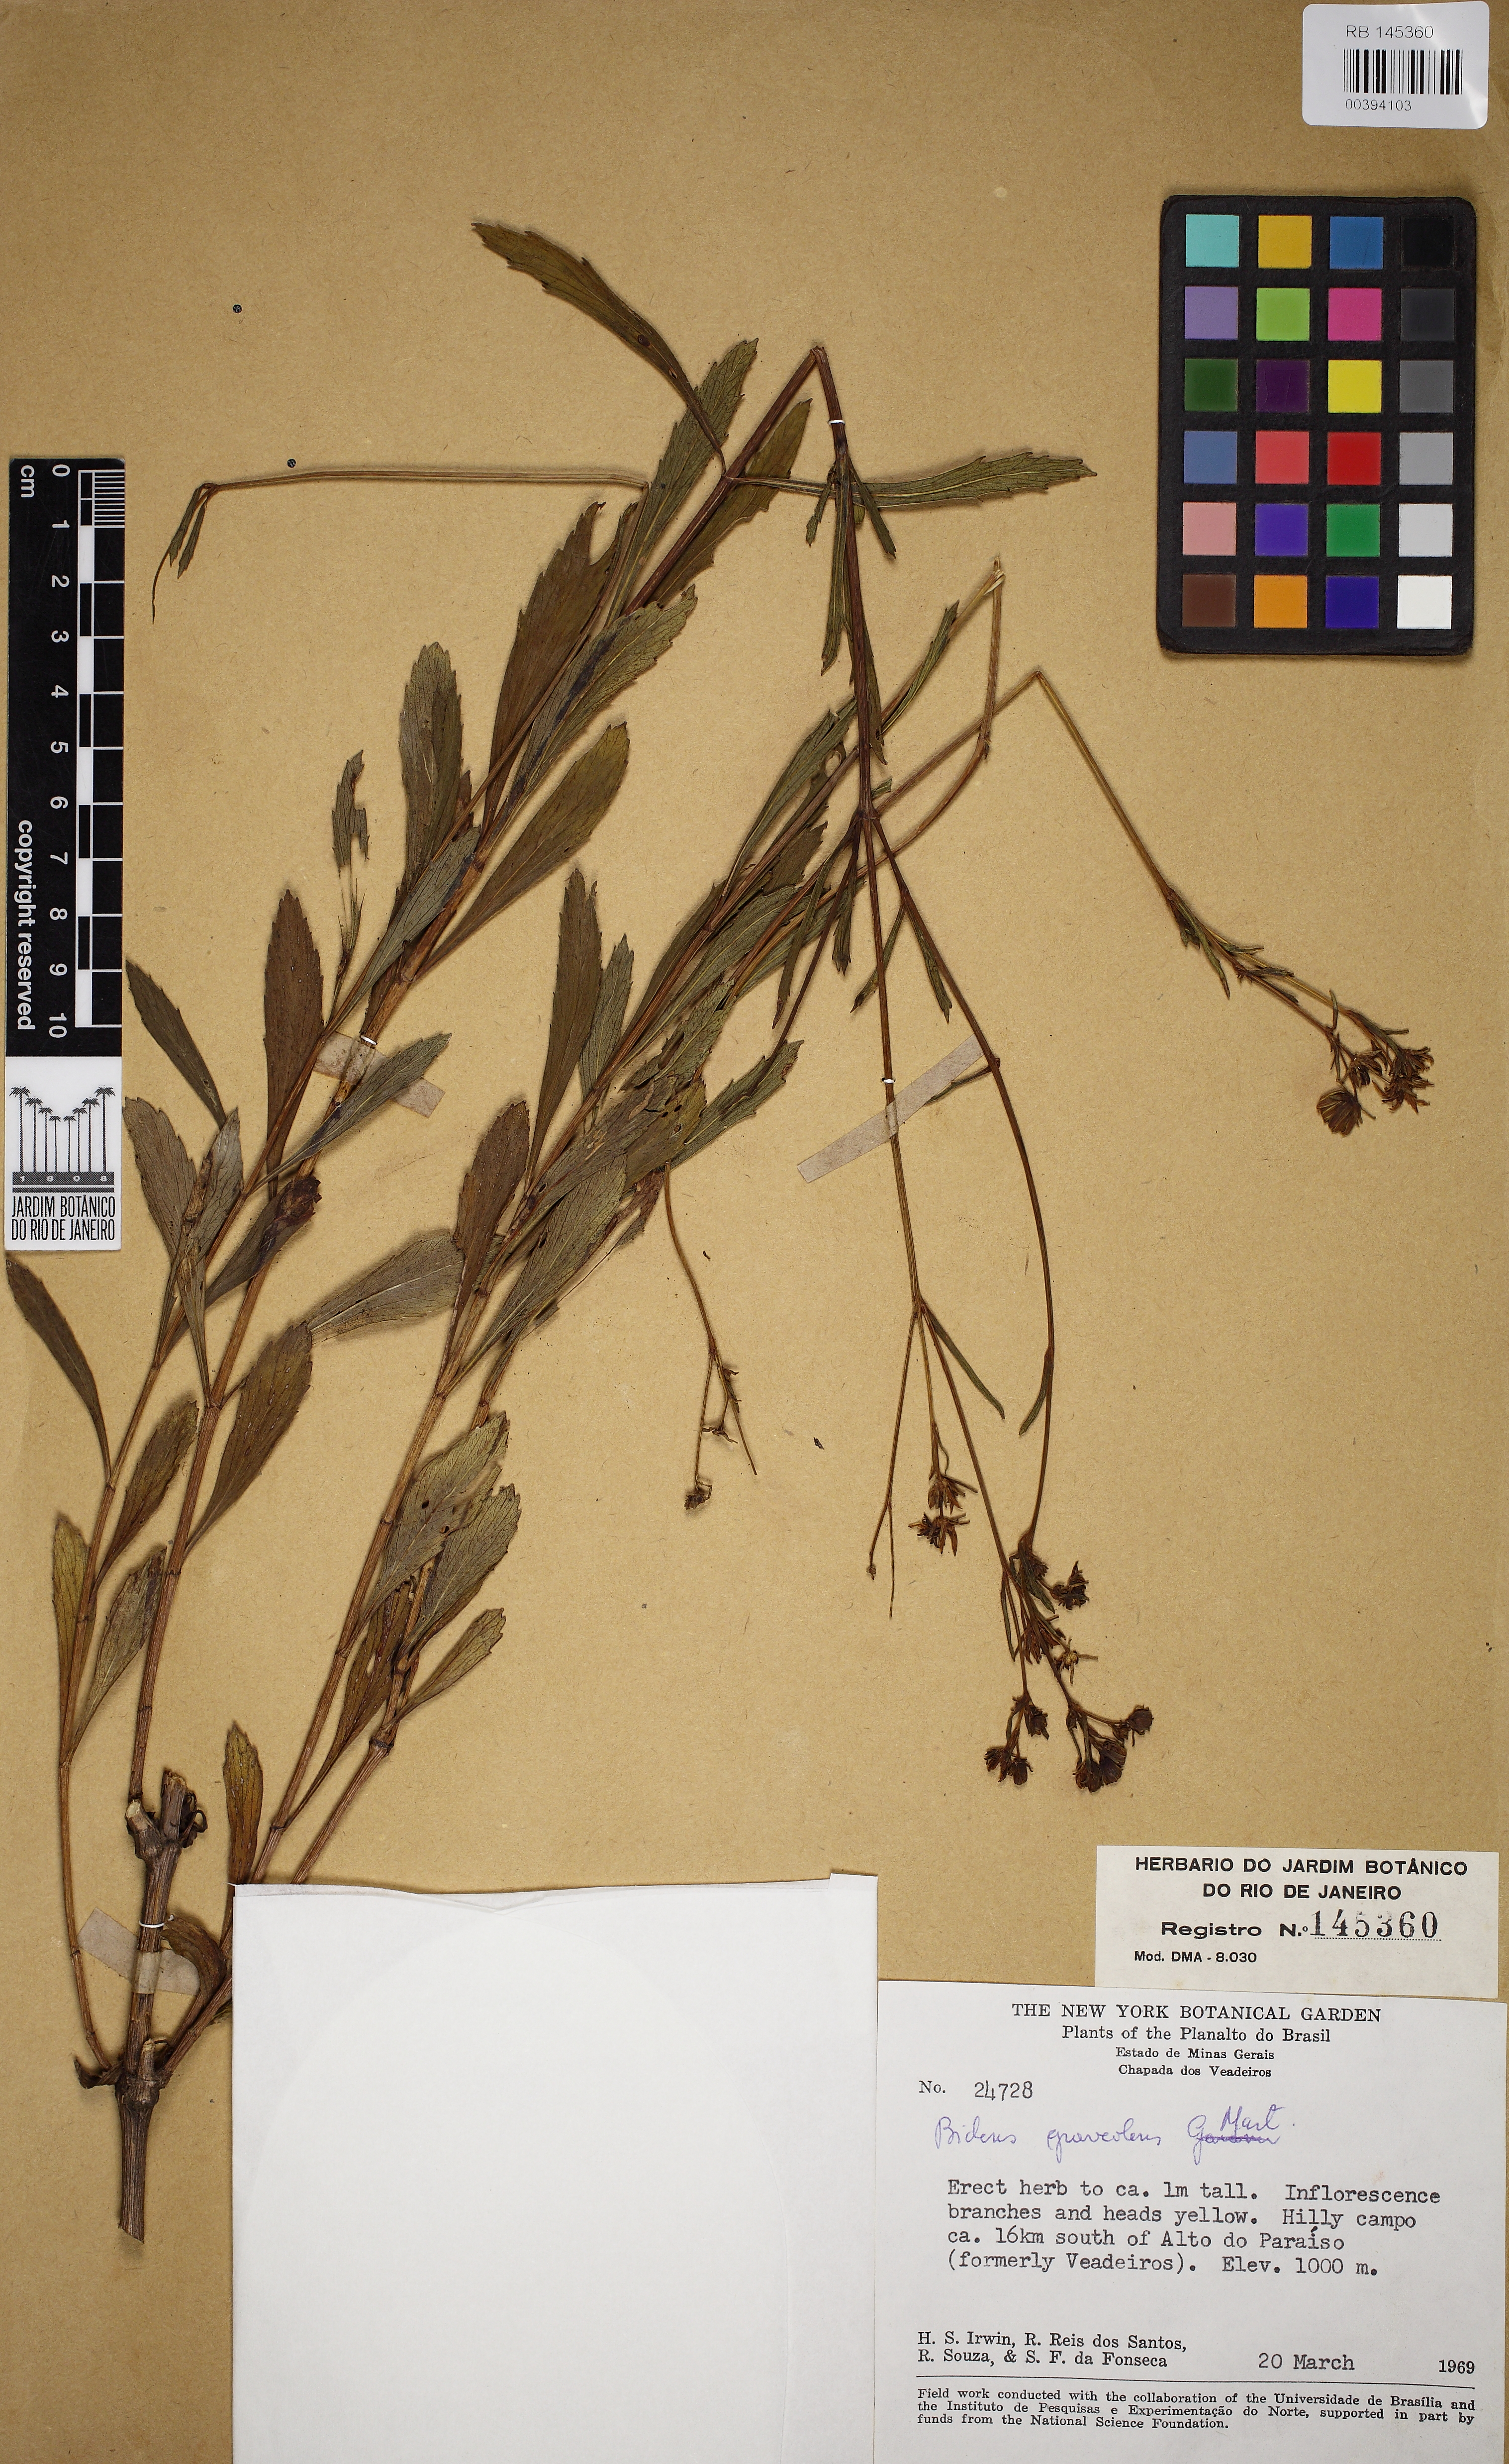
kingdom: Plantae
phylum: Tracheophyta
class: Magnoliopsida
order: Asterales
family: Asteraceae
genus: Bidens
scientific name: Bidens graveolens
